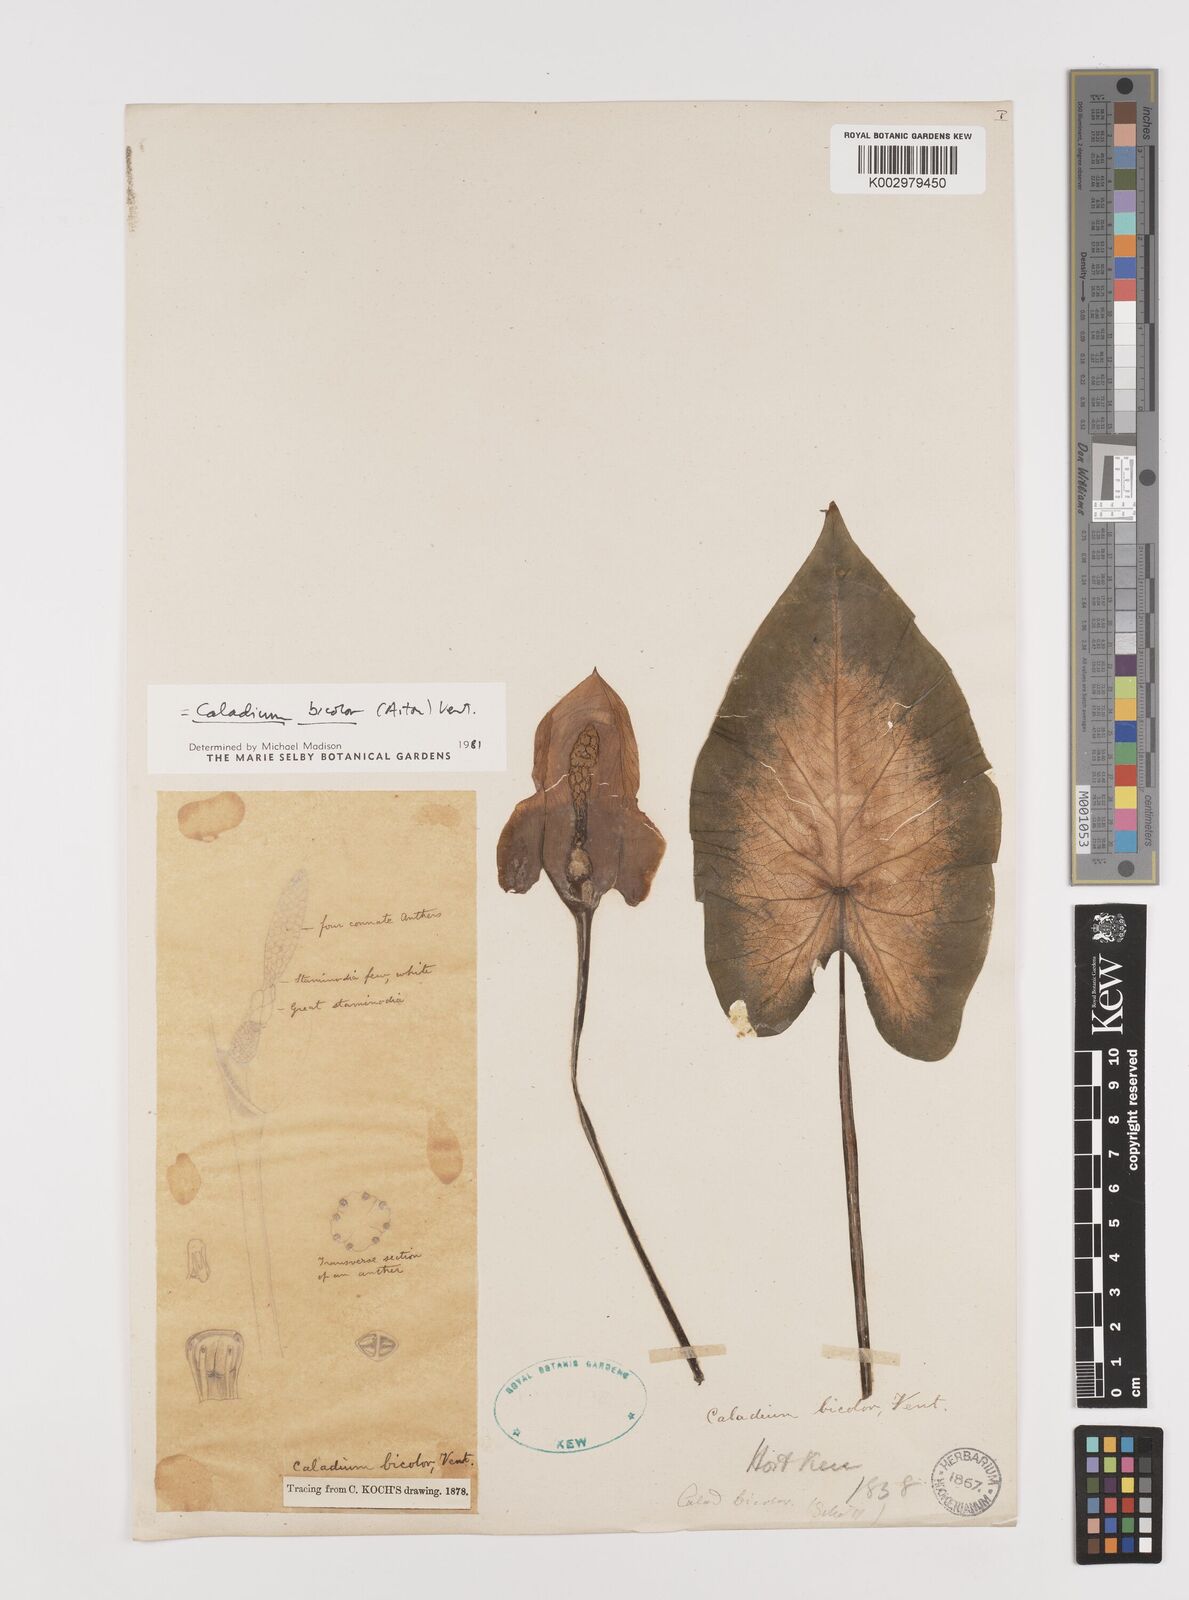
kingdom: Plantae
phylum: Tracheophyta
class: Liliopsida
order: Alismatales
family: Araceae
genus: Caladium
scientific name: Caladium bicolor
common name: Artist's pallet
